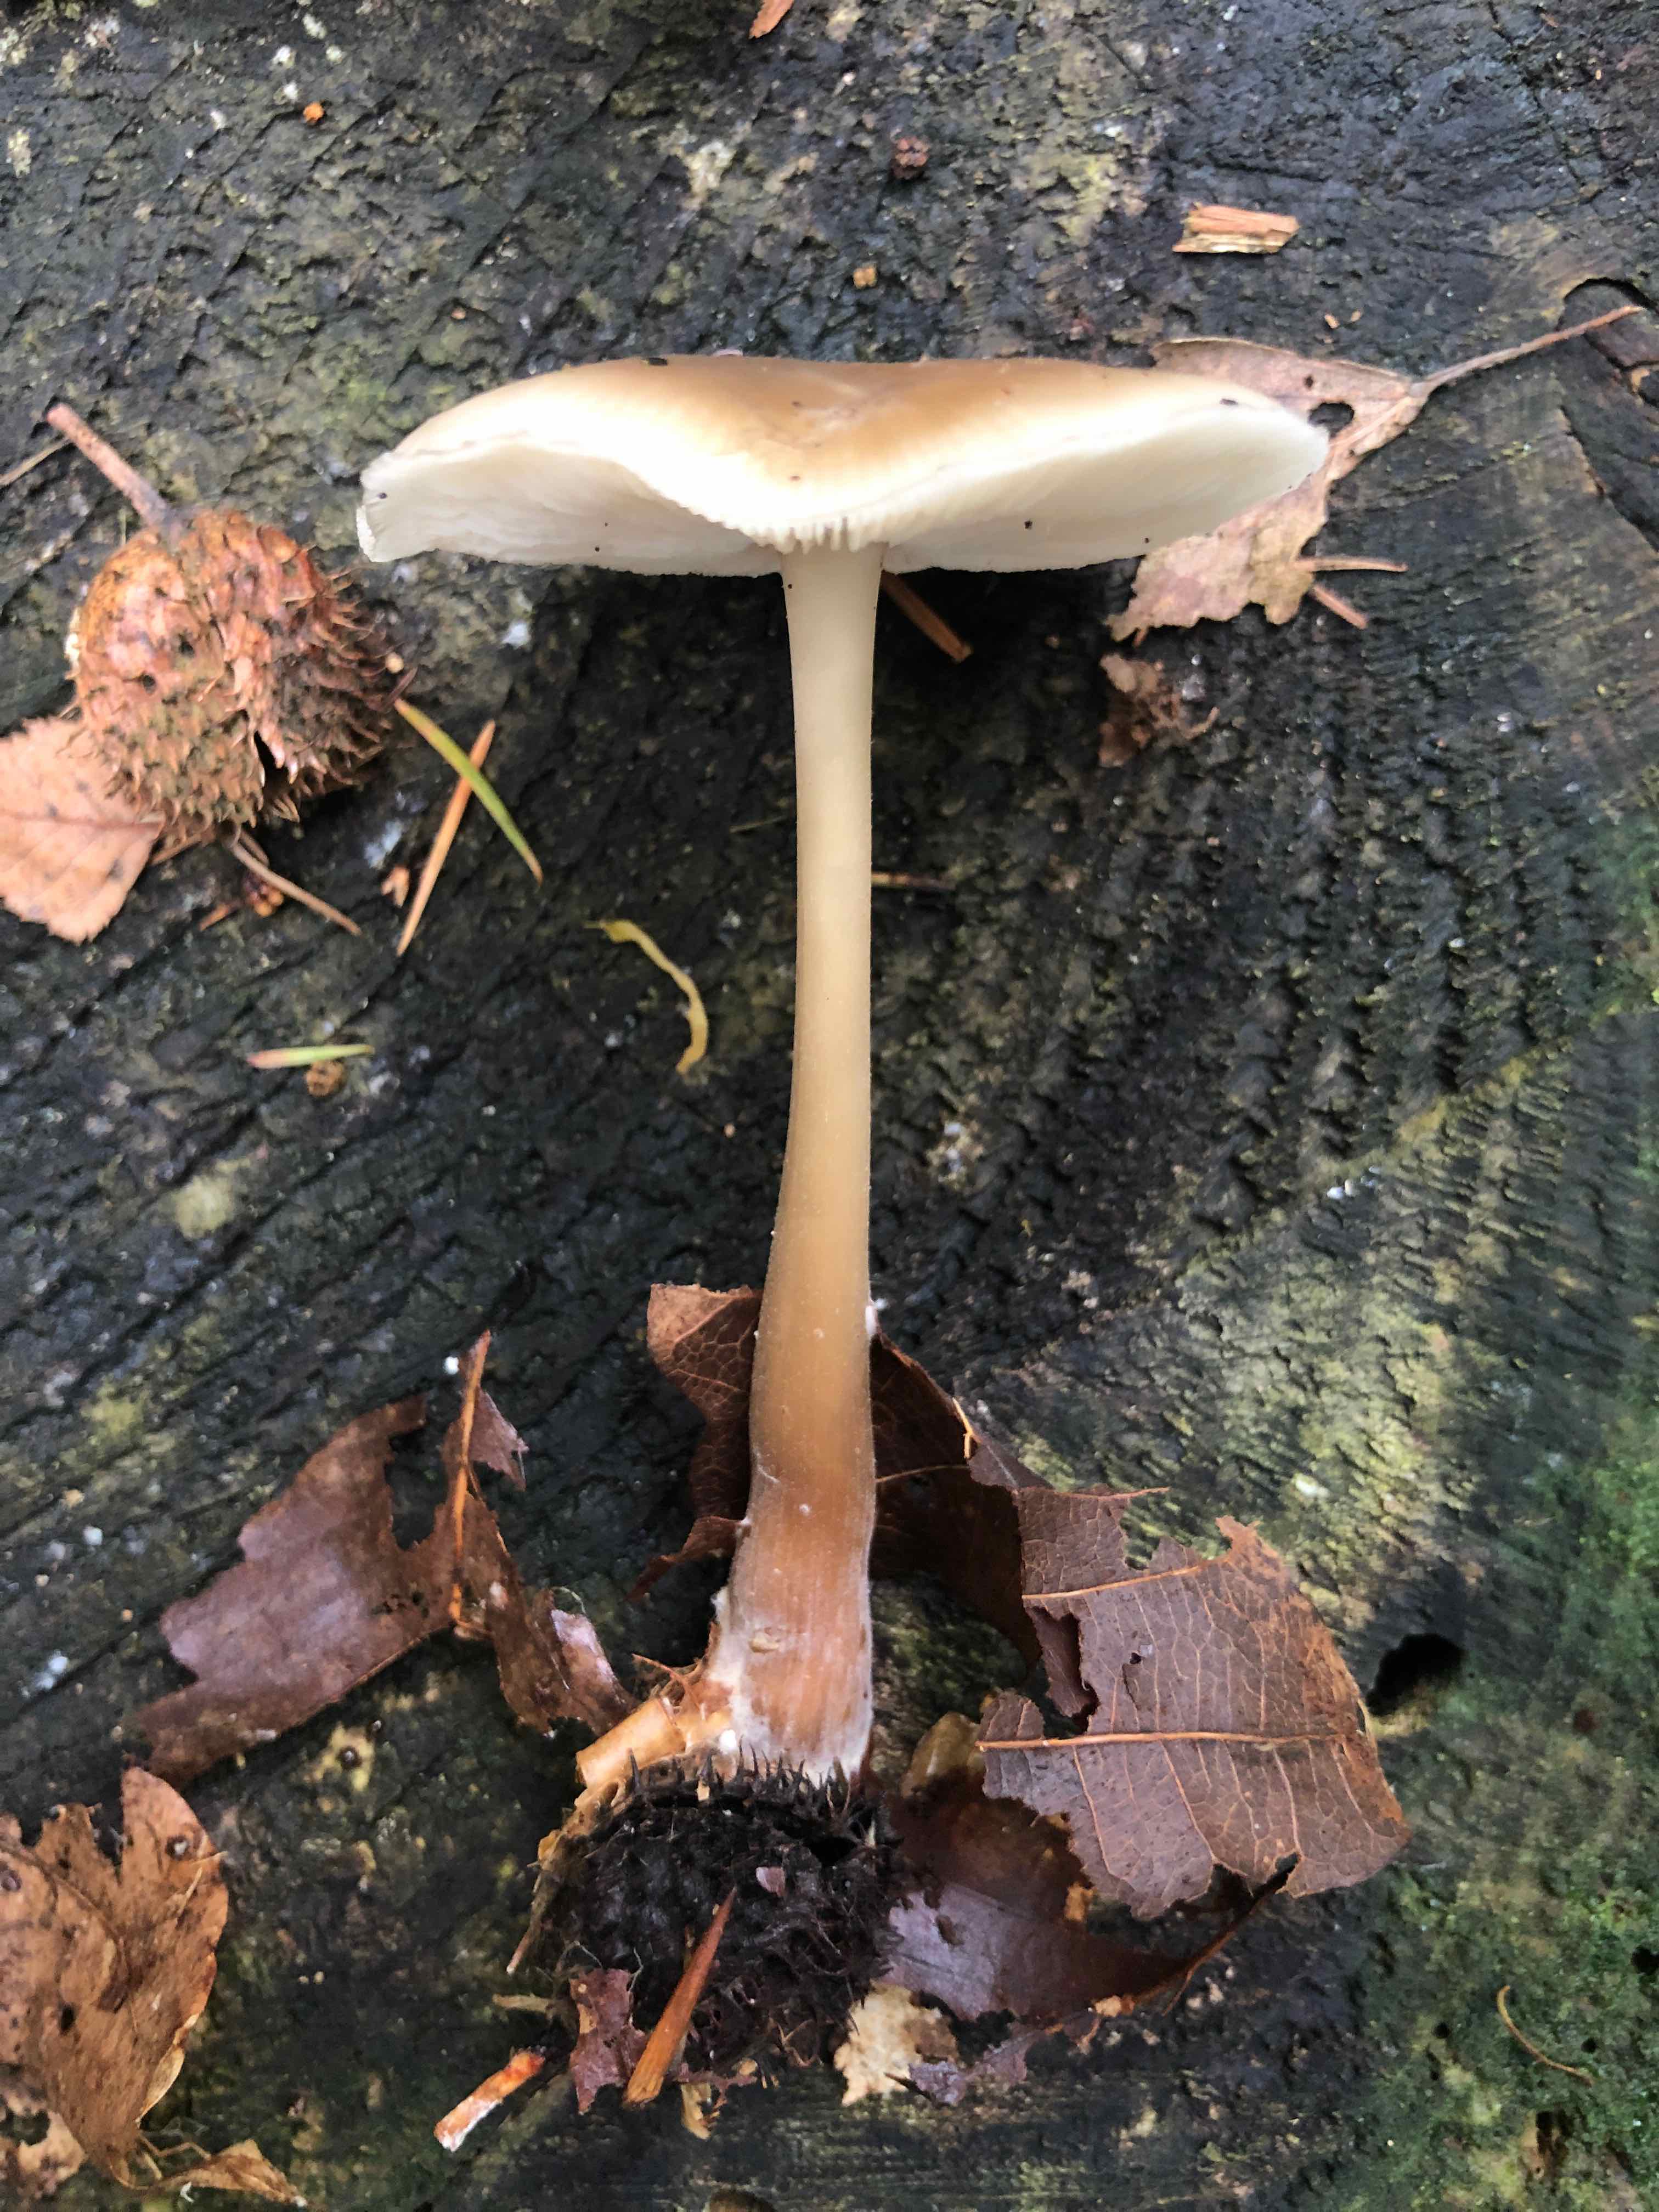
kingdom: Fungi
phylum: Basidiomycota
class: Agaricomycetes
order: Agaricales
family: Omphalotaceae
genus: Rhodocollybia
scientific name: Rhodocollybia asema
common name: horngrå fladhat
